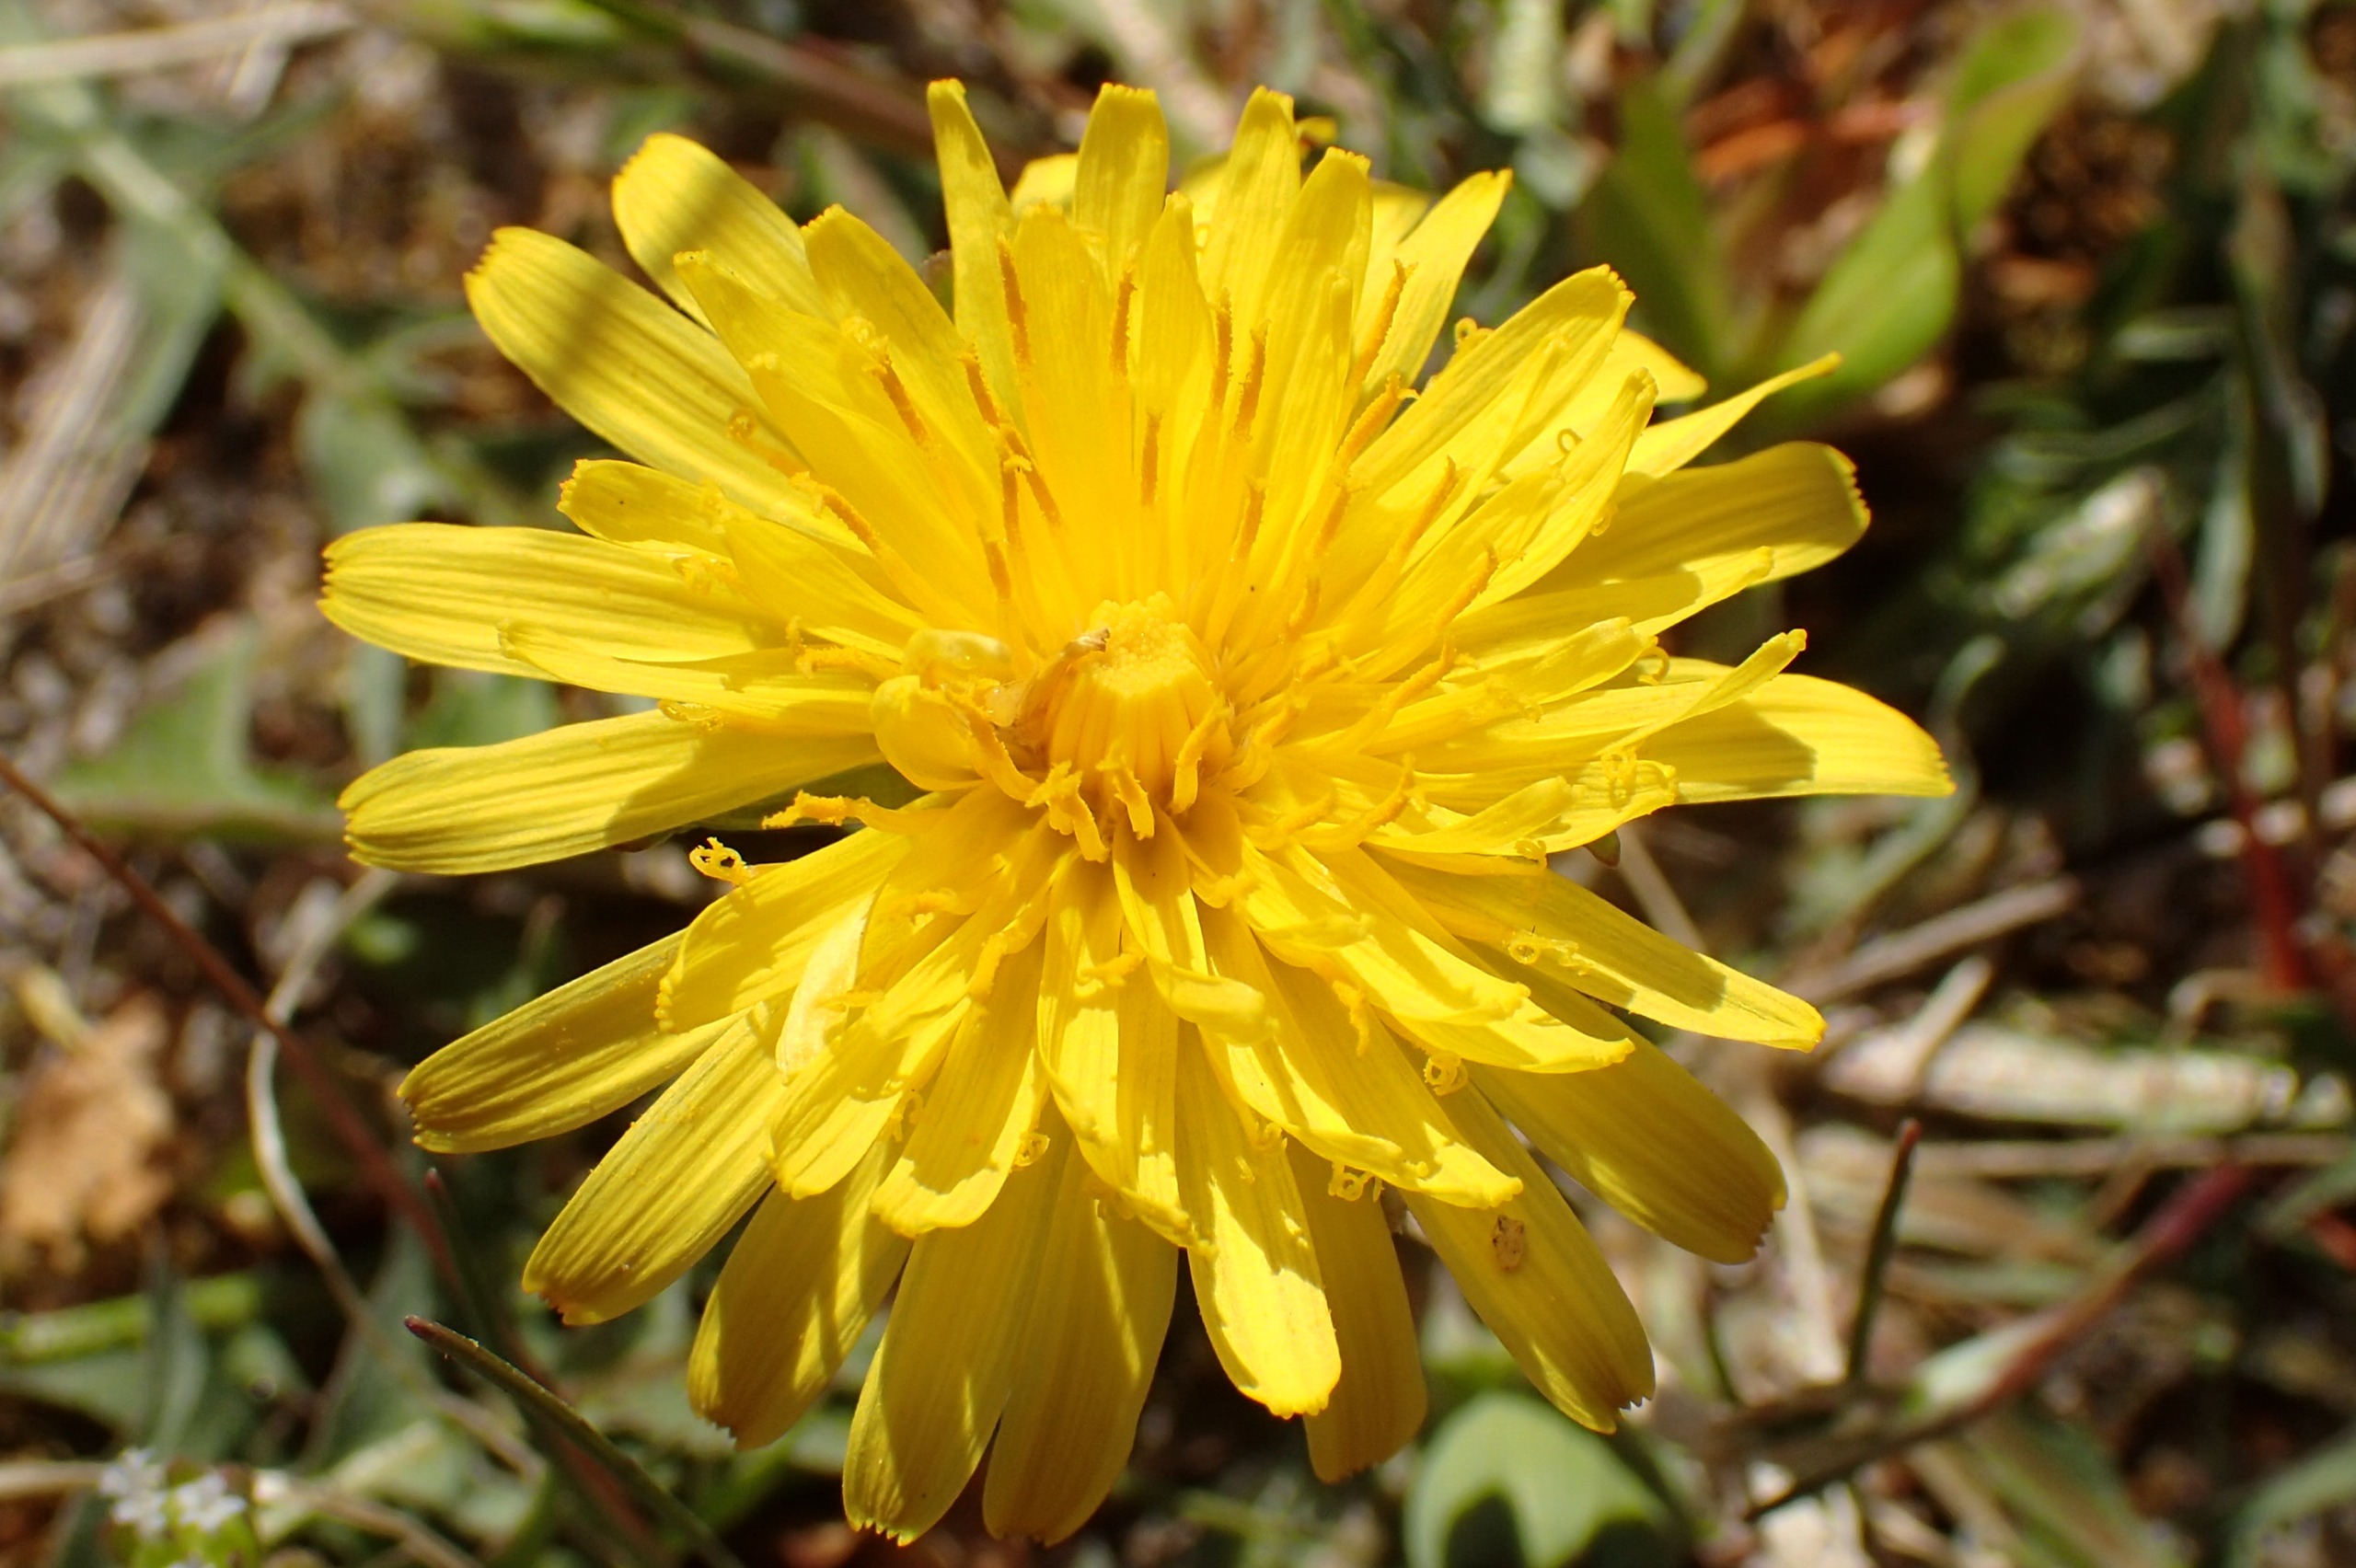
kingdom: Plantae
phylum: Tracheophyta
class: Magnoliopsida
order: Asterales
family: Asteraceae
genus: Taraxacum
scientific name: Taraxacum laetum
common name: Lys sandmælkebøtte
